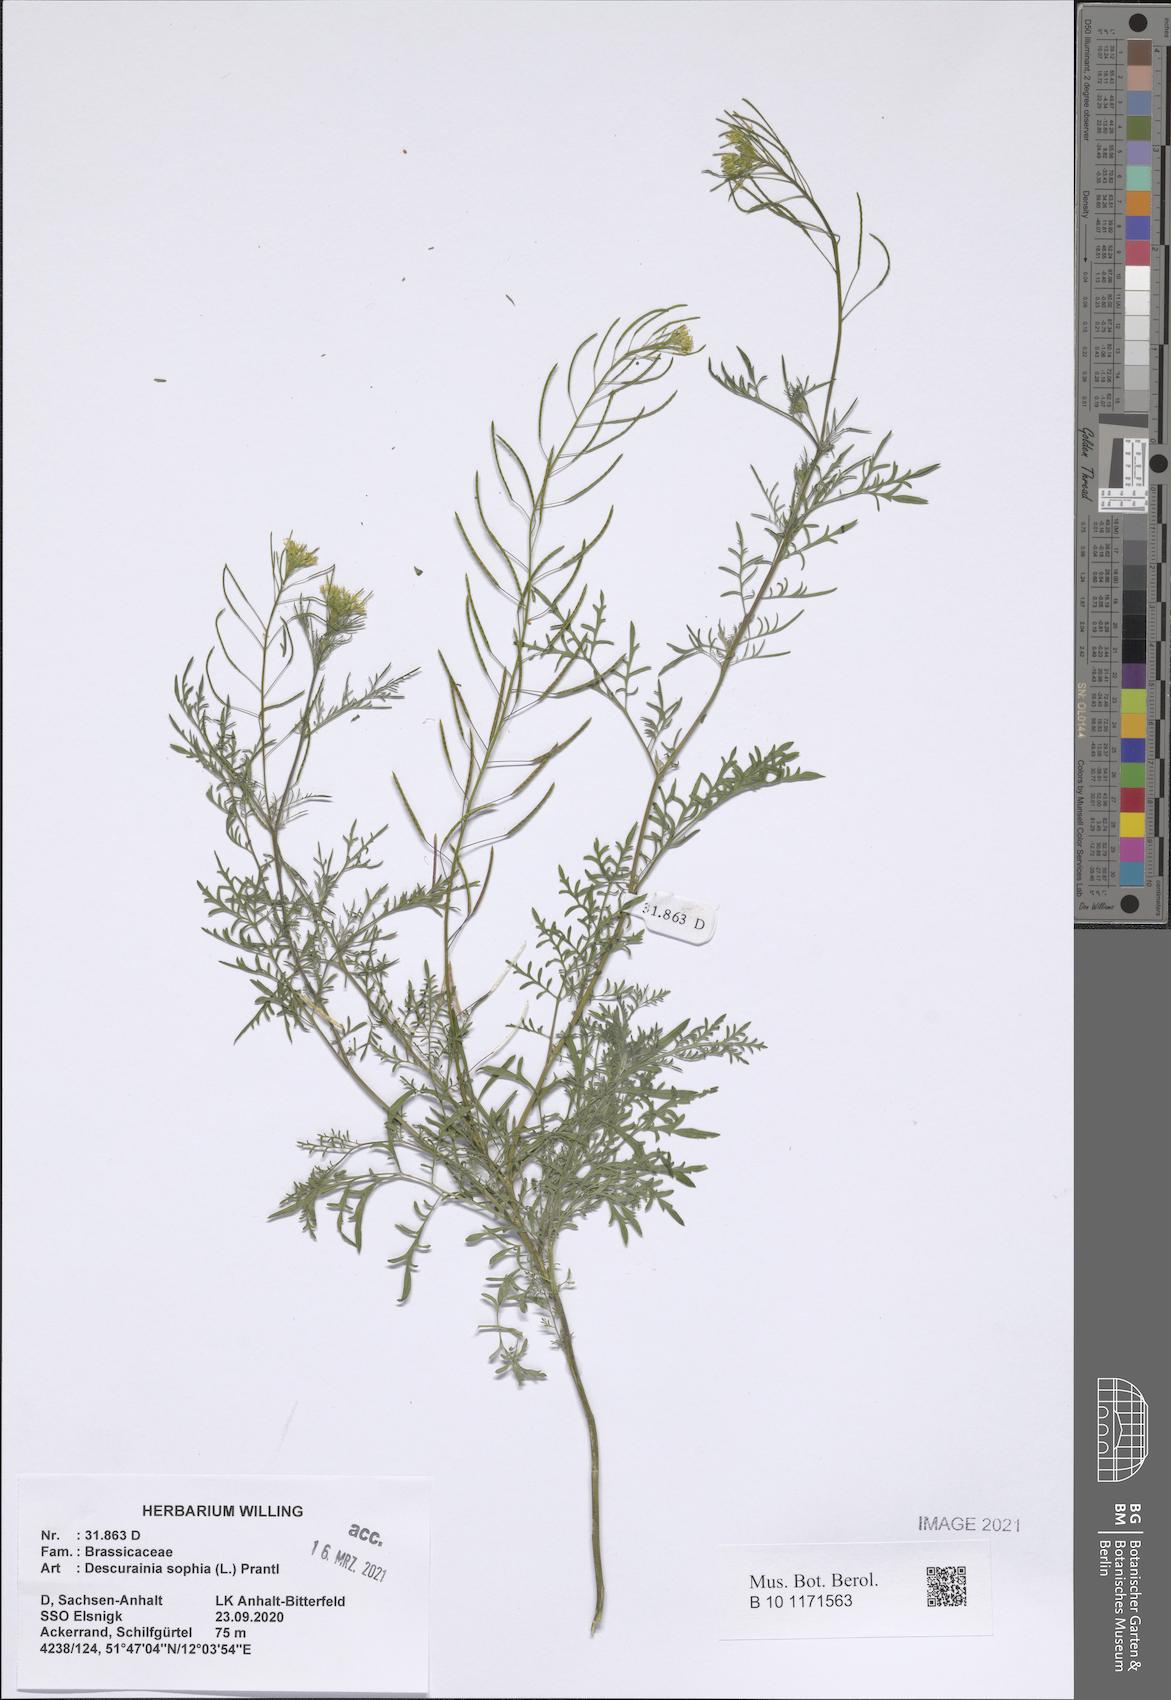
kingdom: Plantae
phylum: Tracheophyta
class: Magnoliopsida
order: Brassicales
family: Brassicaceae
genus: Descurainia
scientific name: Descurainia sophia
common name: Flixweed
